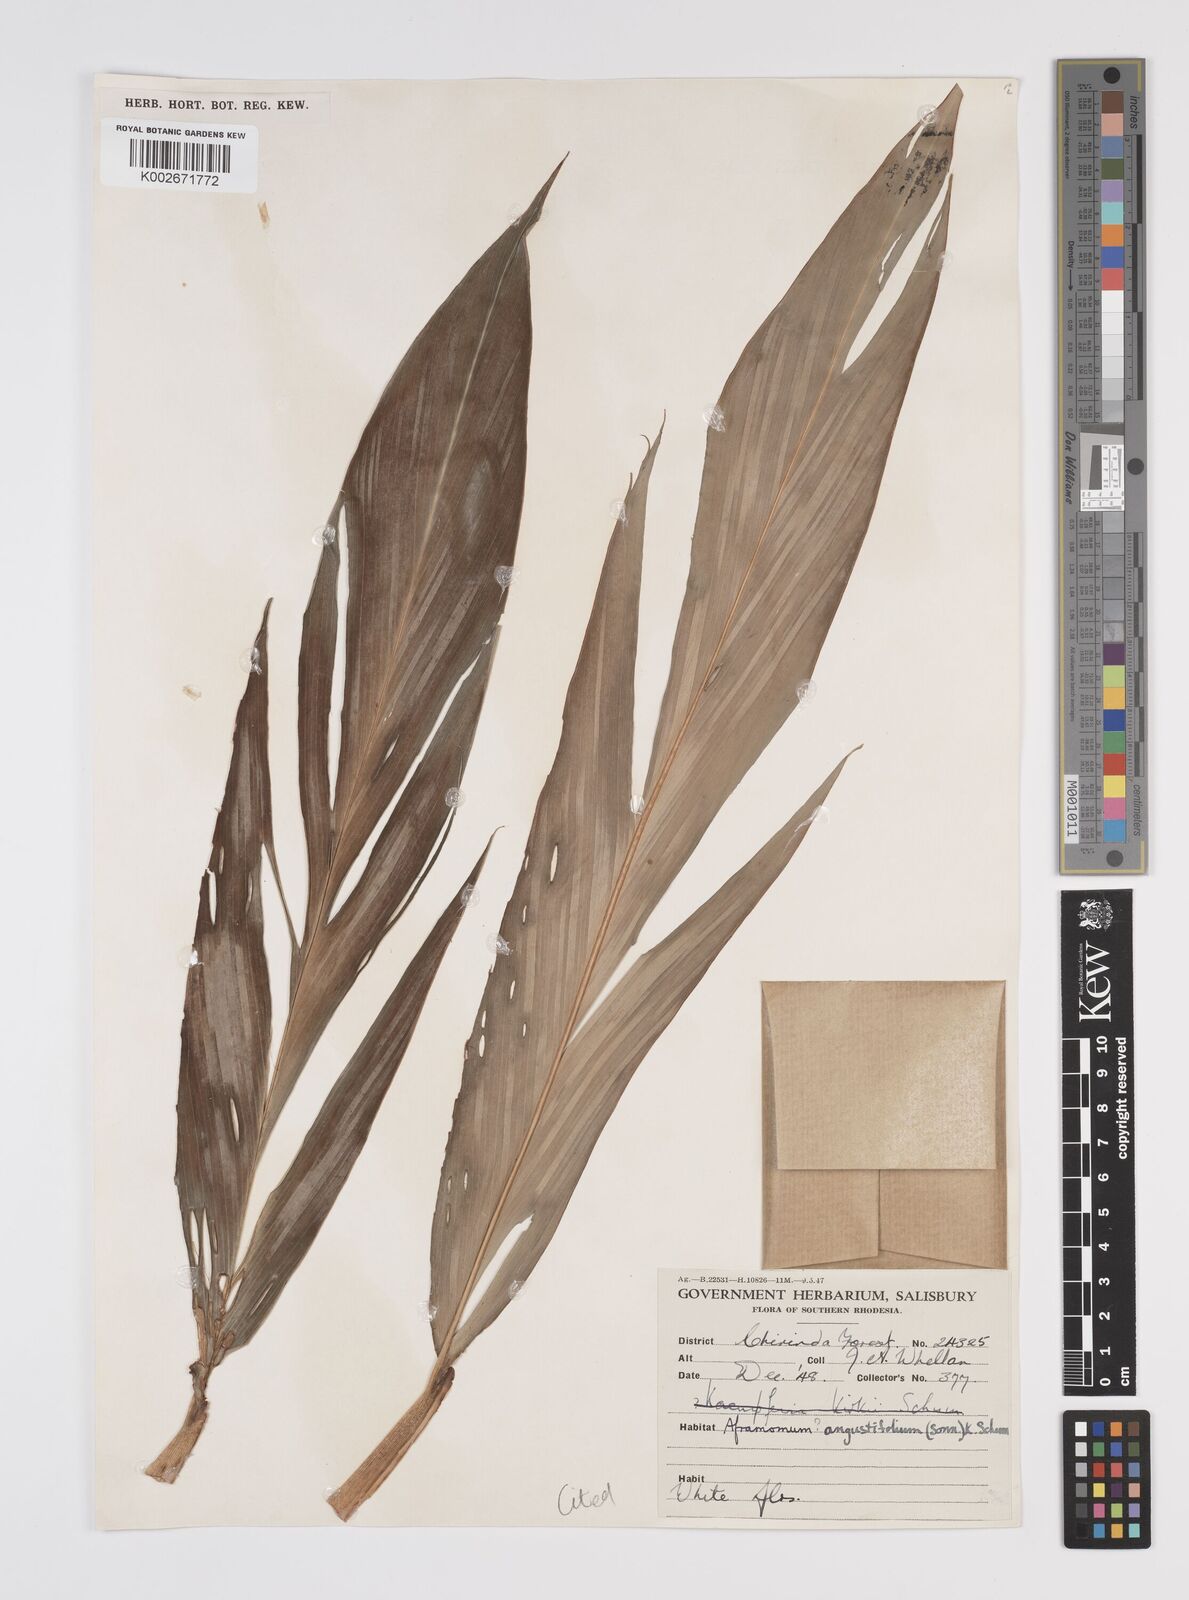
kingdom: Plantae
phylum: Tracheophyta
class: Liliopsida
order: Zingiberales
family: Zingiberaceae
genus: Aframomum
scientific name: Aframomum albiflorum
